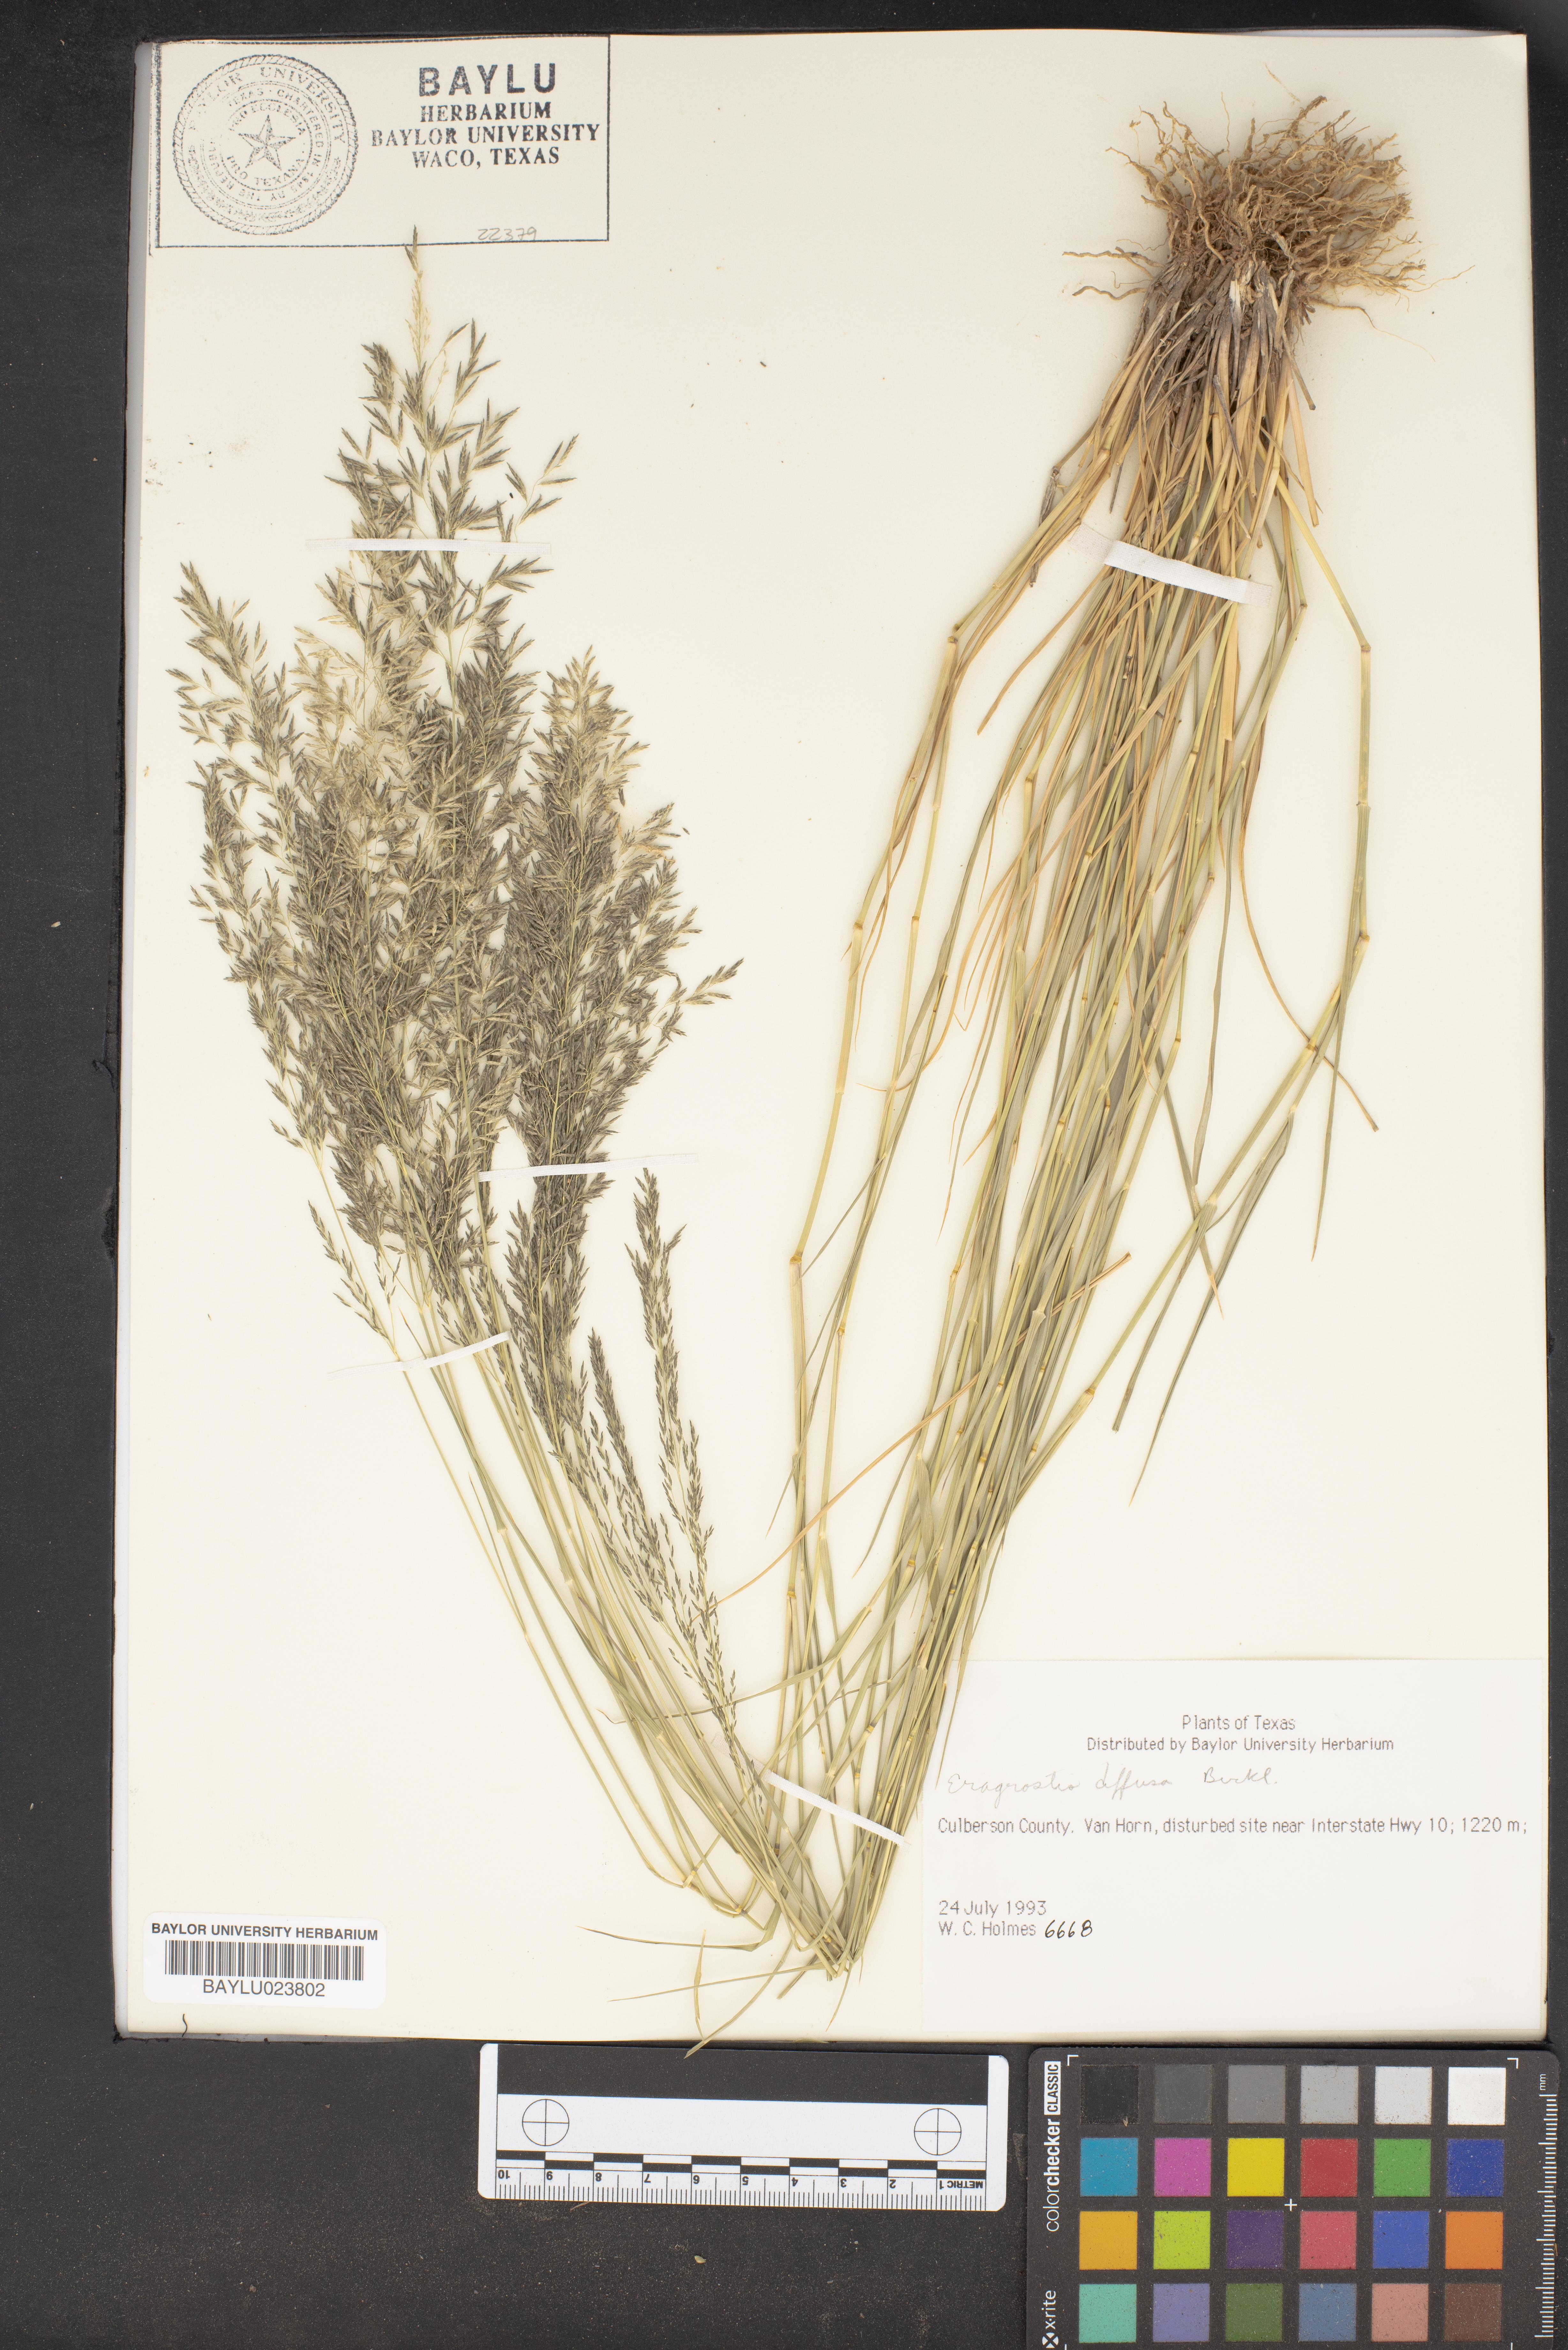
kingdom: Plantae
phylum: Tracheophyta
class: Liliopsida
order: Poales
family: Poaceae
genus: Eragrostis
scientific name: Eragrostis pectinacea
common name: Tufted lovegrass
